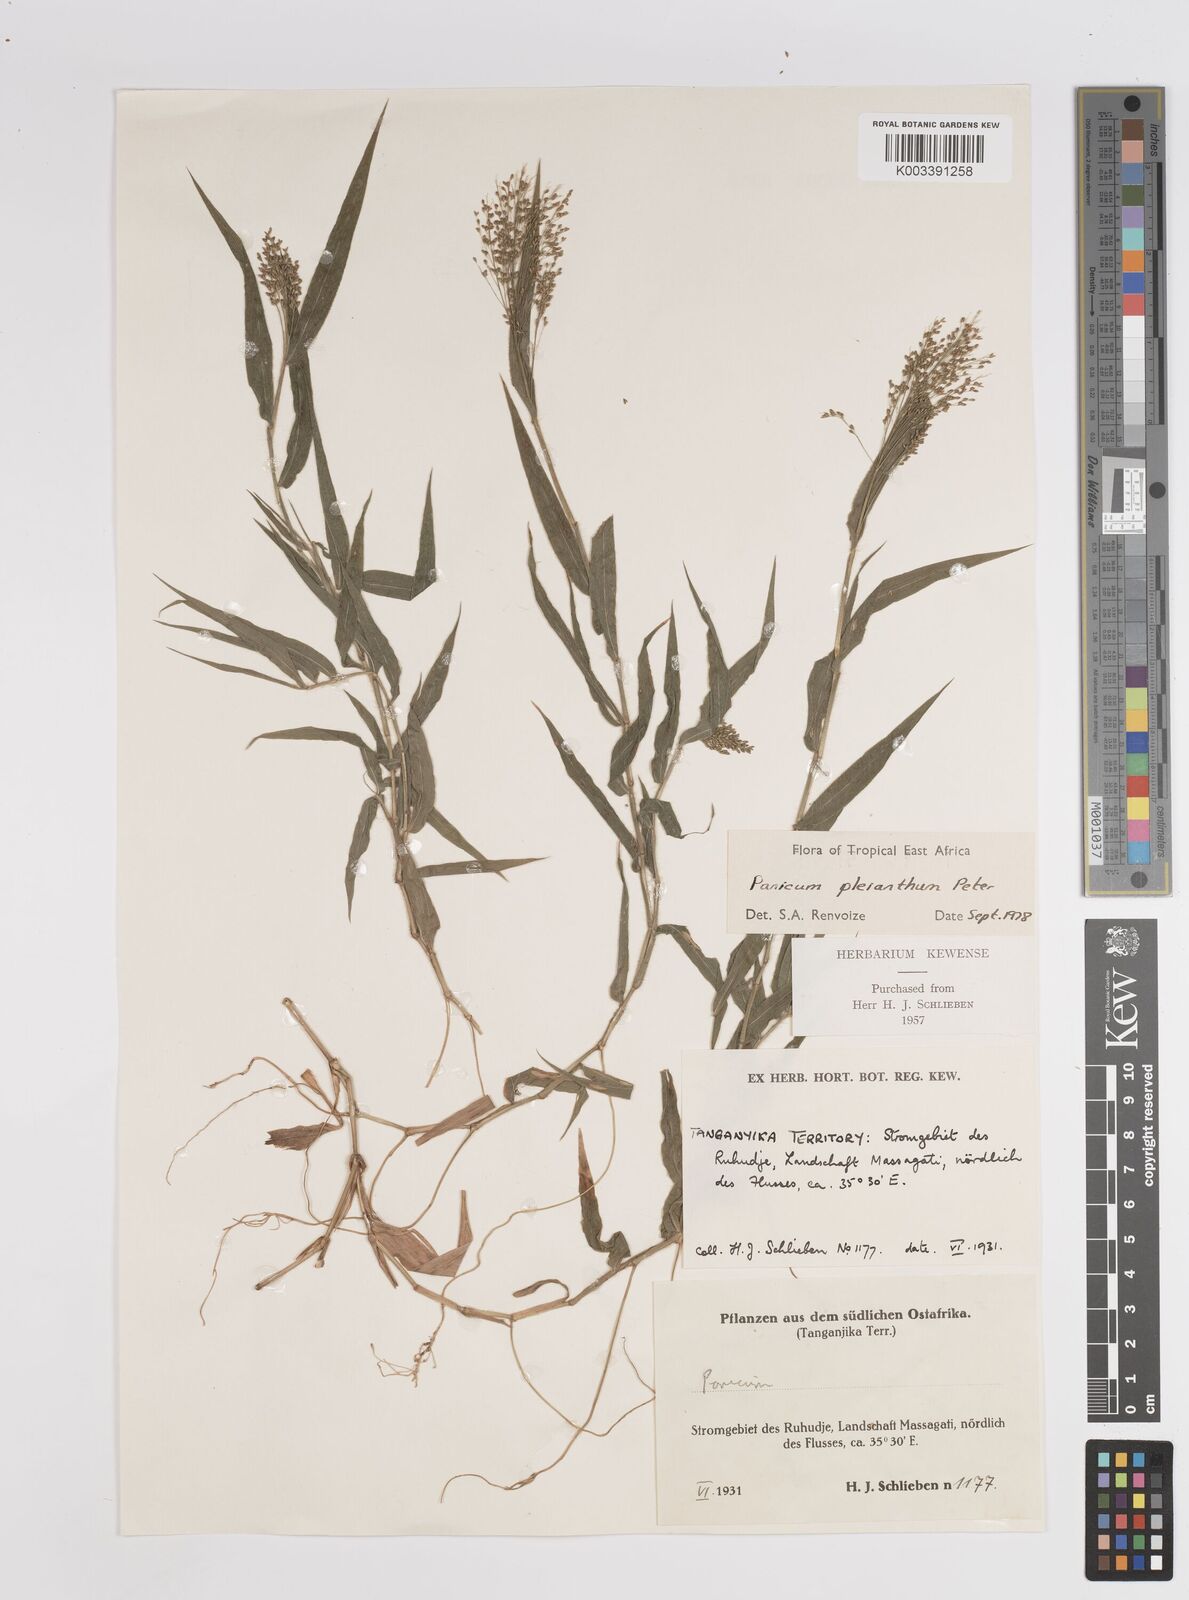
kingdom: Plantae
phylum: Tracheophyta
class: Liliopsida
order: Poales
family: Poaceae
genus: Panicum
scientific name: Panicum pleianthum
